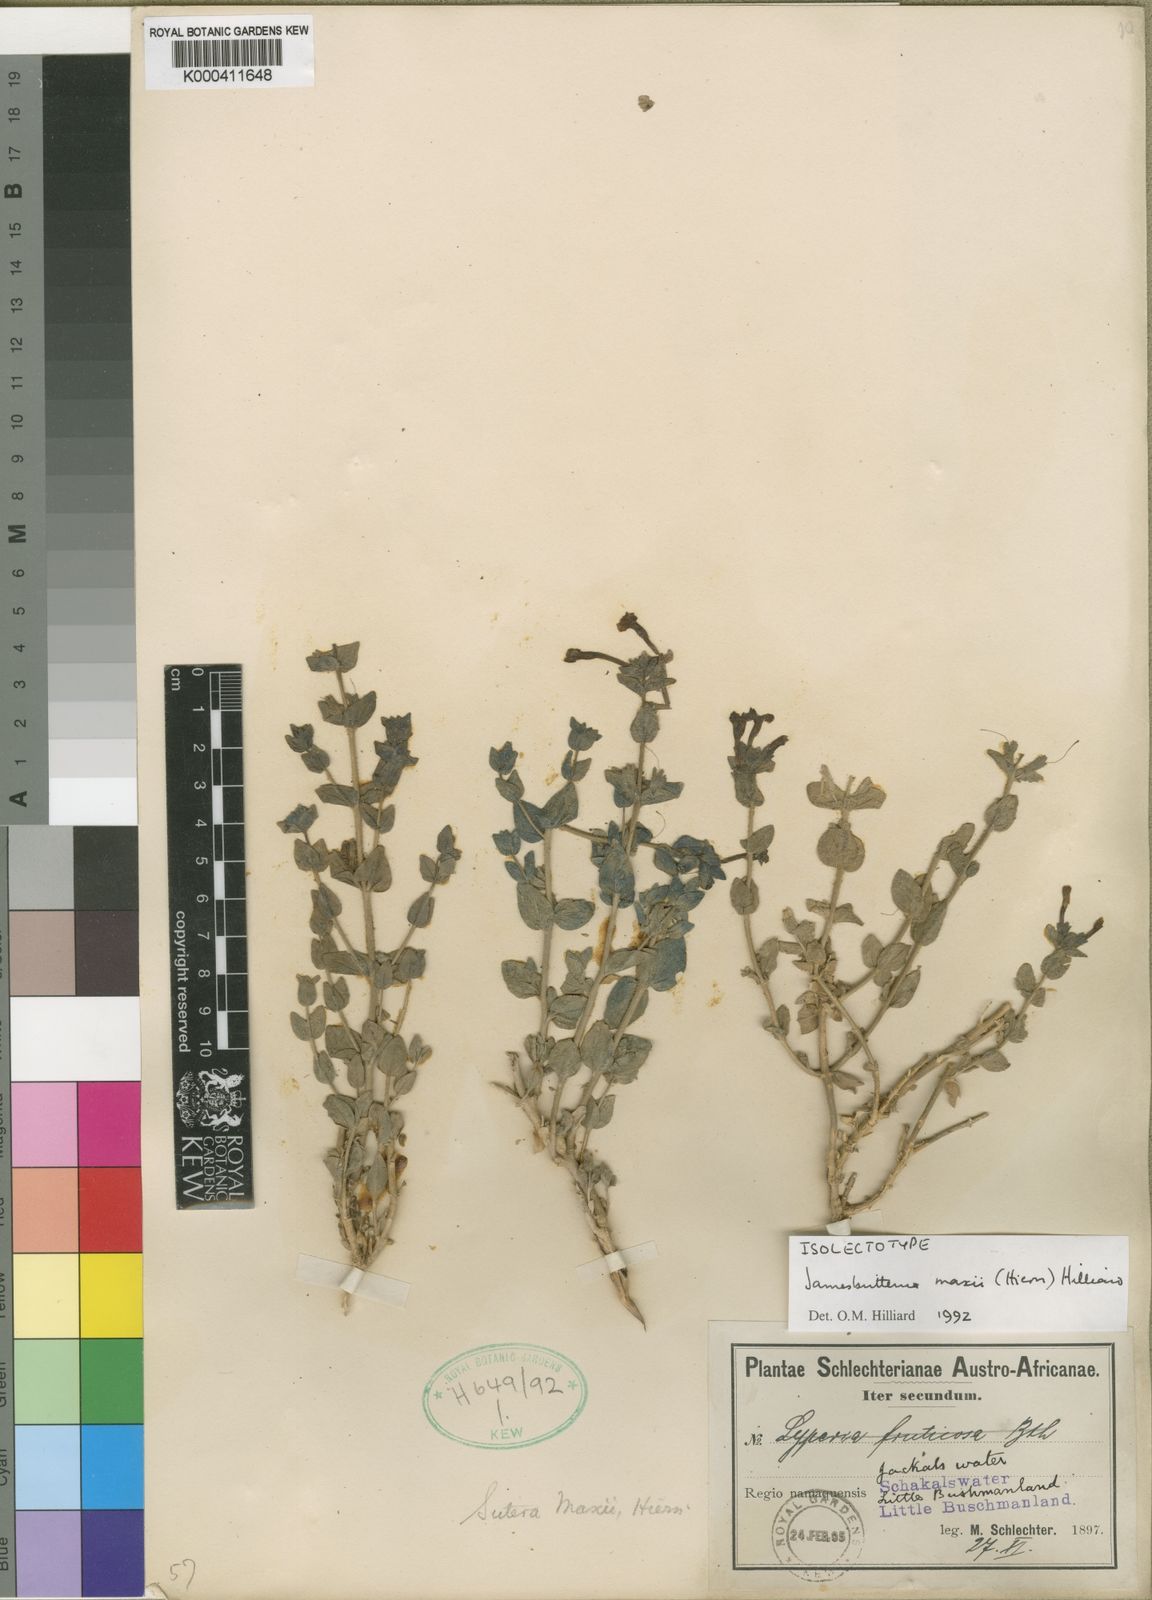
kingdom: Plantae
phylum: Tracheophyta
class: Magnoliopsida
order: Lamiales
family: Scrophulariaceae
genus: Jamesbrittenia
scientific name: Jamesbrittenia maxii
